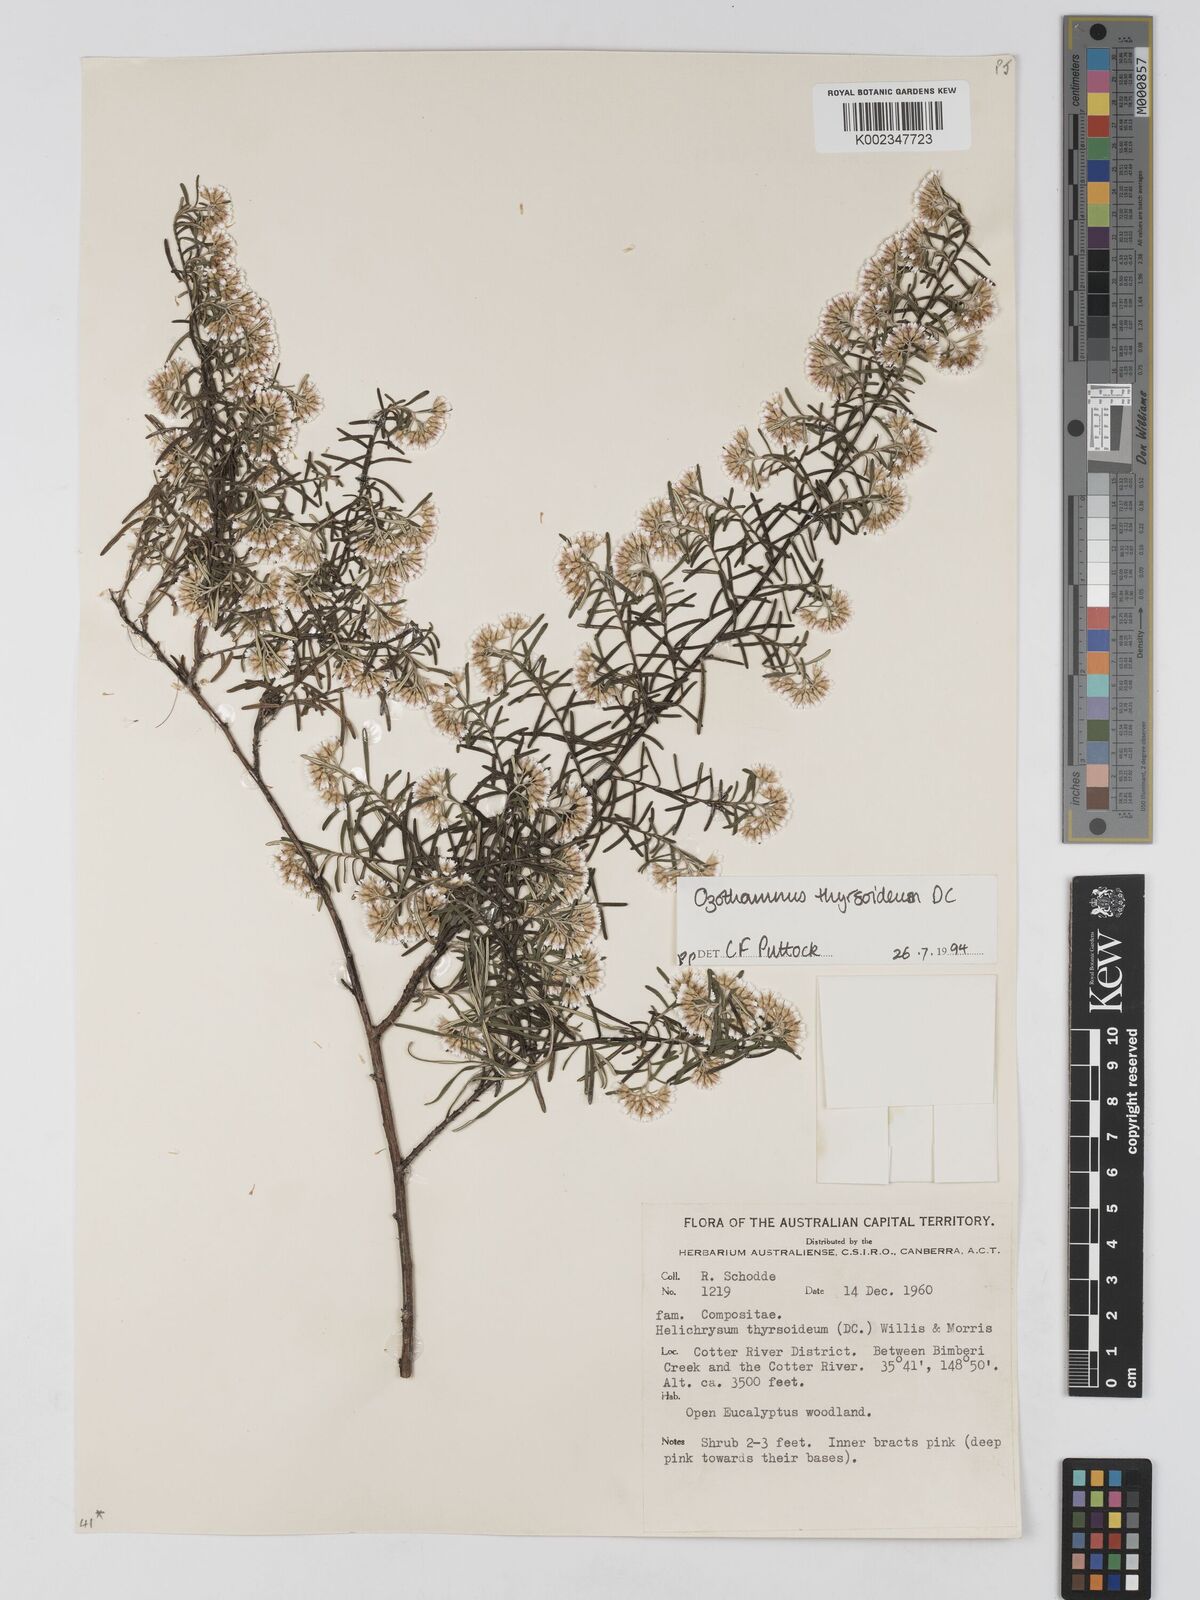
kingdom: Plantae
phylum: Tracheophyta
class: Magnoliopsida
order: Asterales
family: Asteraceae
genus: Ozothamnus
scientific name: Ozothamnus thyrsoideus
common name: Snow-in-summer
